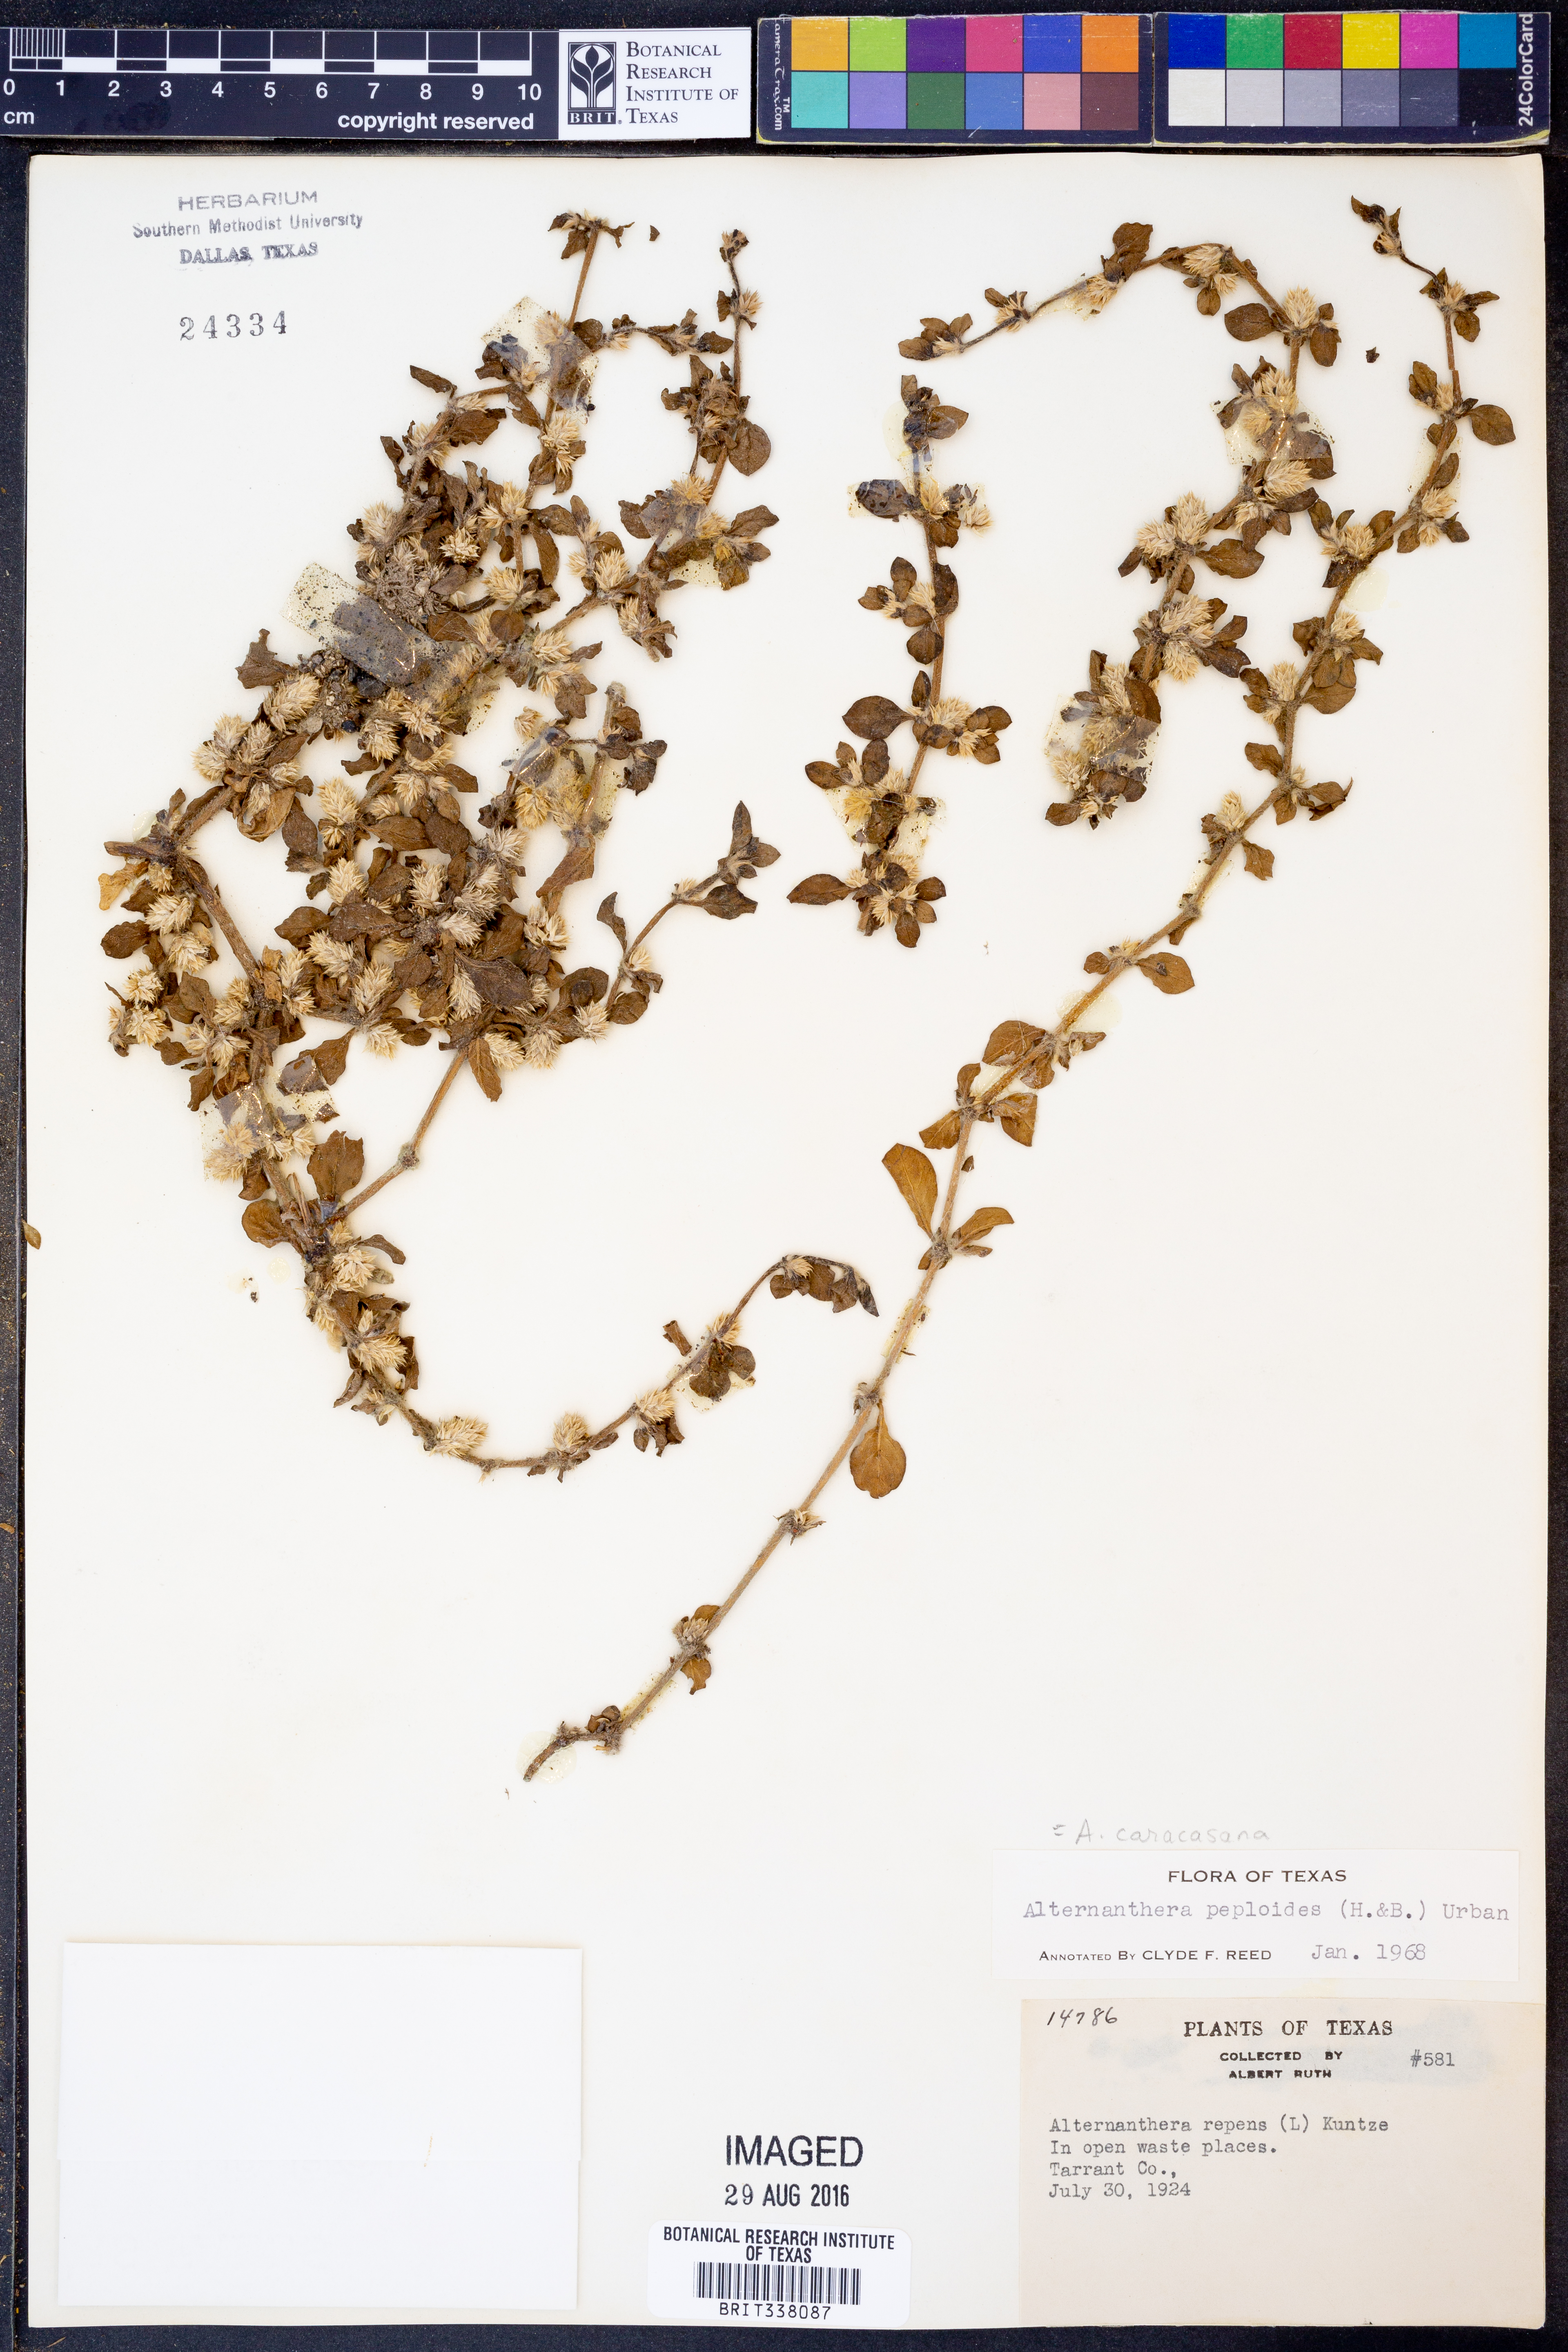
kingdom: Plantae
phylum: Tracheophyta
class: Magnoliopsida
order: Caryophyllales
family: Amaranthaceae
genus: Alternanthera
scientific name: Alternanthera caracasana
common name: Washerwoman
